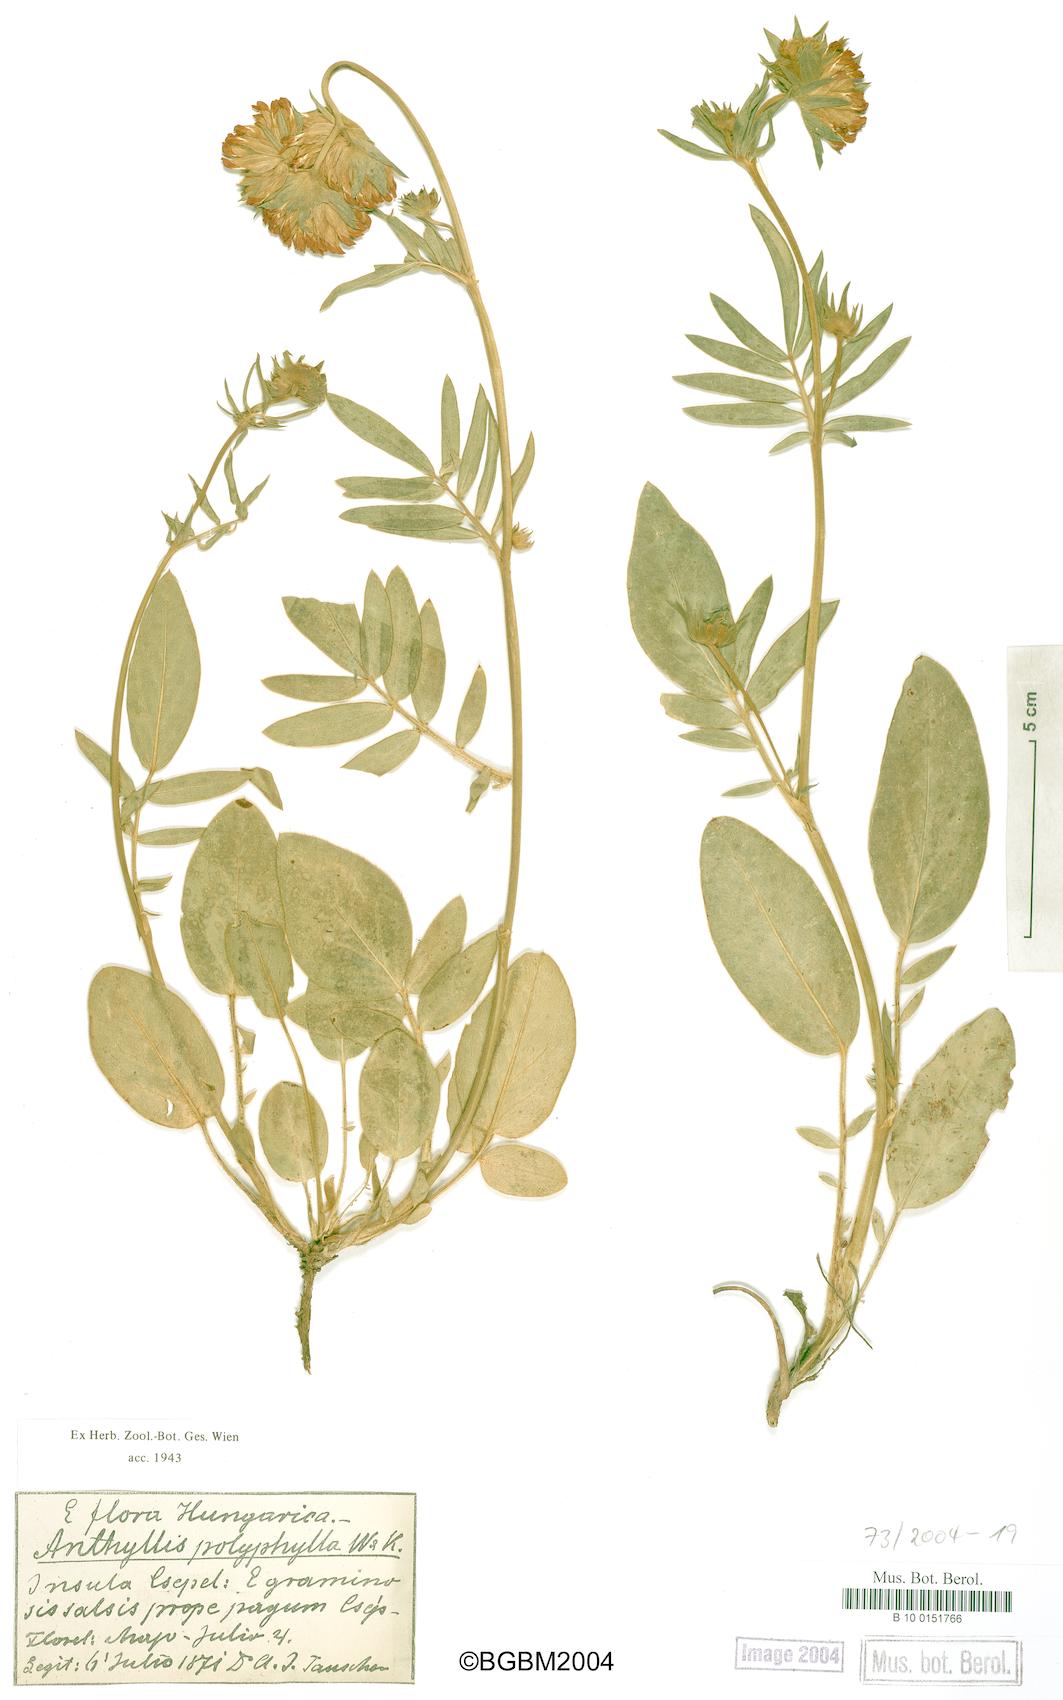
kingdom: Plantae
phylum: Tracheophyta
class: Magnoliopsida
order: Fabales
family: Fabaceae
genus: Anthyllis
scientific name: Anthyllis vulneraria
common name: Kidney vetch
